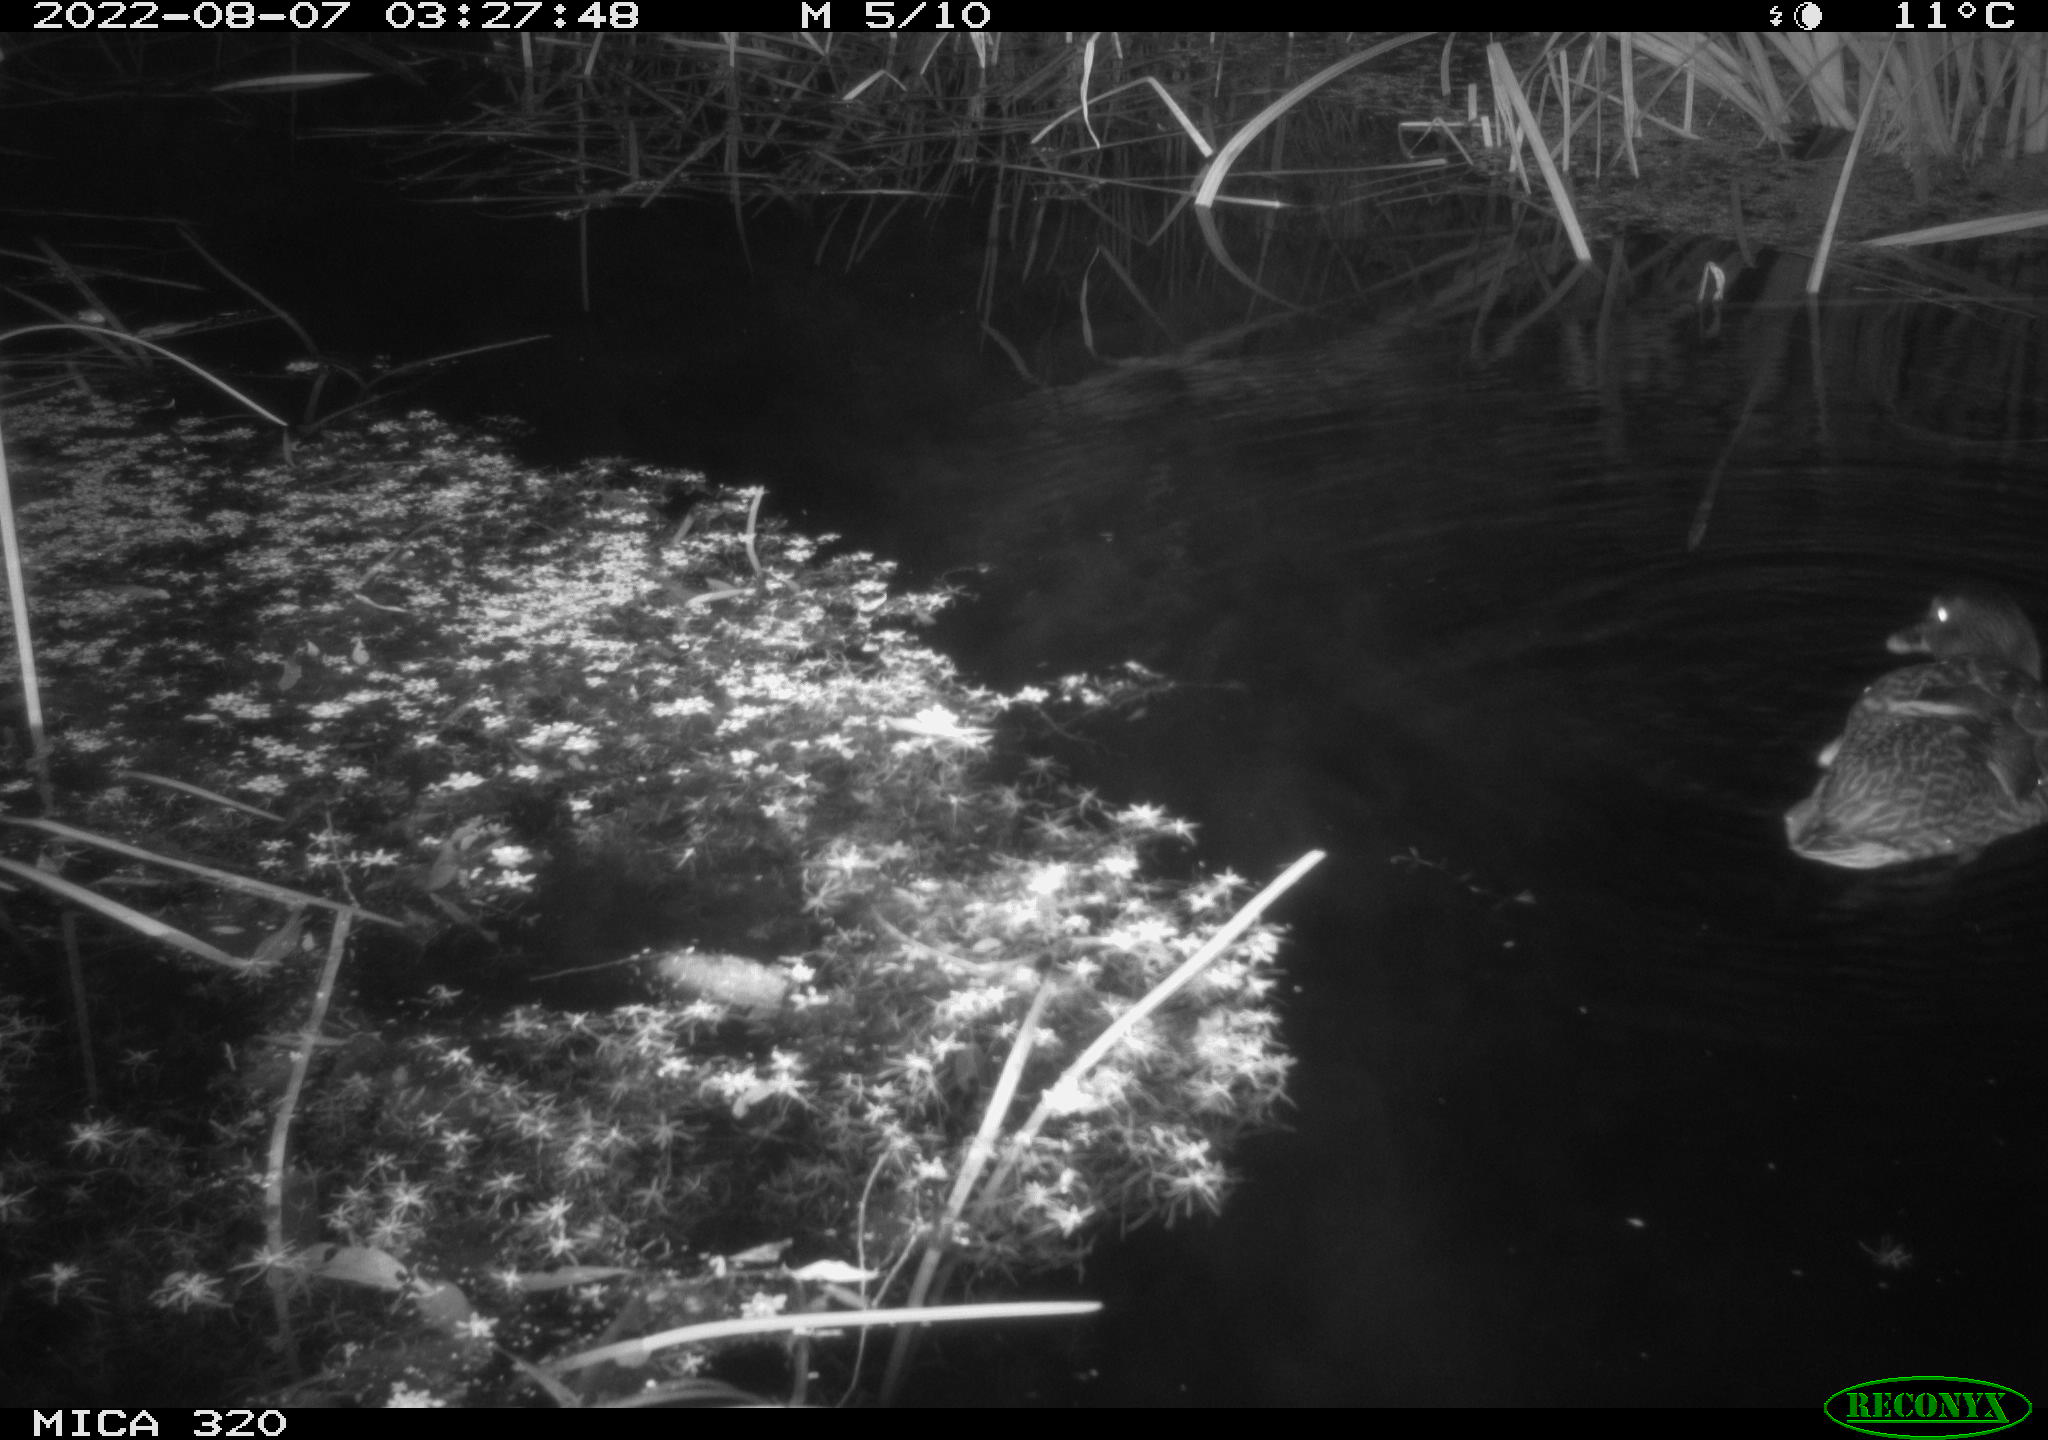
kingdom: Animalia
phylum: Chordata
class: Aves
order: Anseriformes
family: Anatidae
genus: Anas
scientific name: Anas platyrhynchos
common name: Mallard
